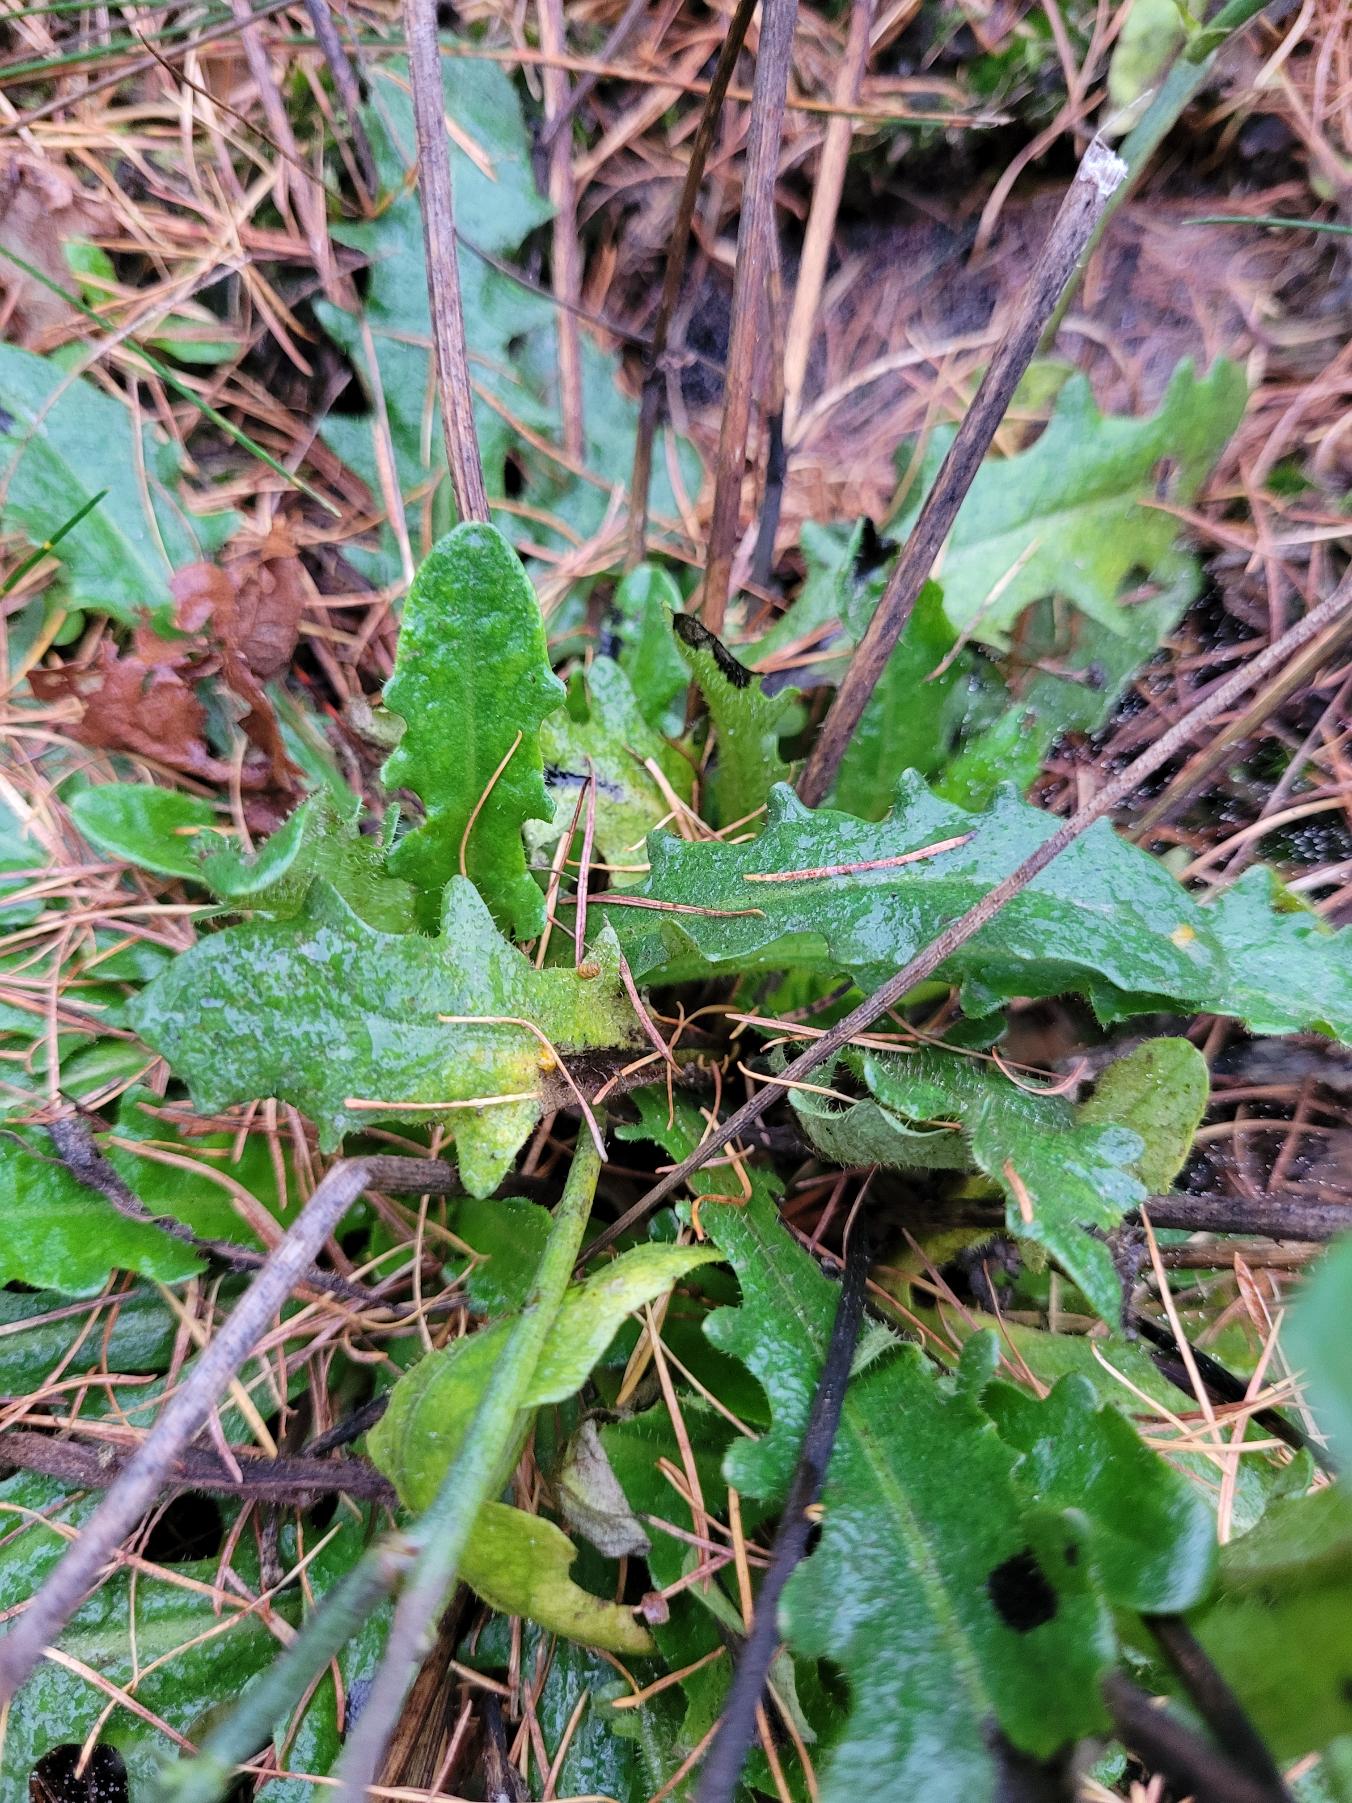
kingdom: Plantae
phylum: Tracheophyta
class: Magnoliopsida
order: Asterales
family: Asteraceae
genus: Hypochaeris
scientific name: Hypochaeris radicata
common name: Almindelig kongepen
